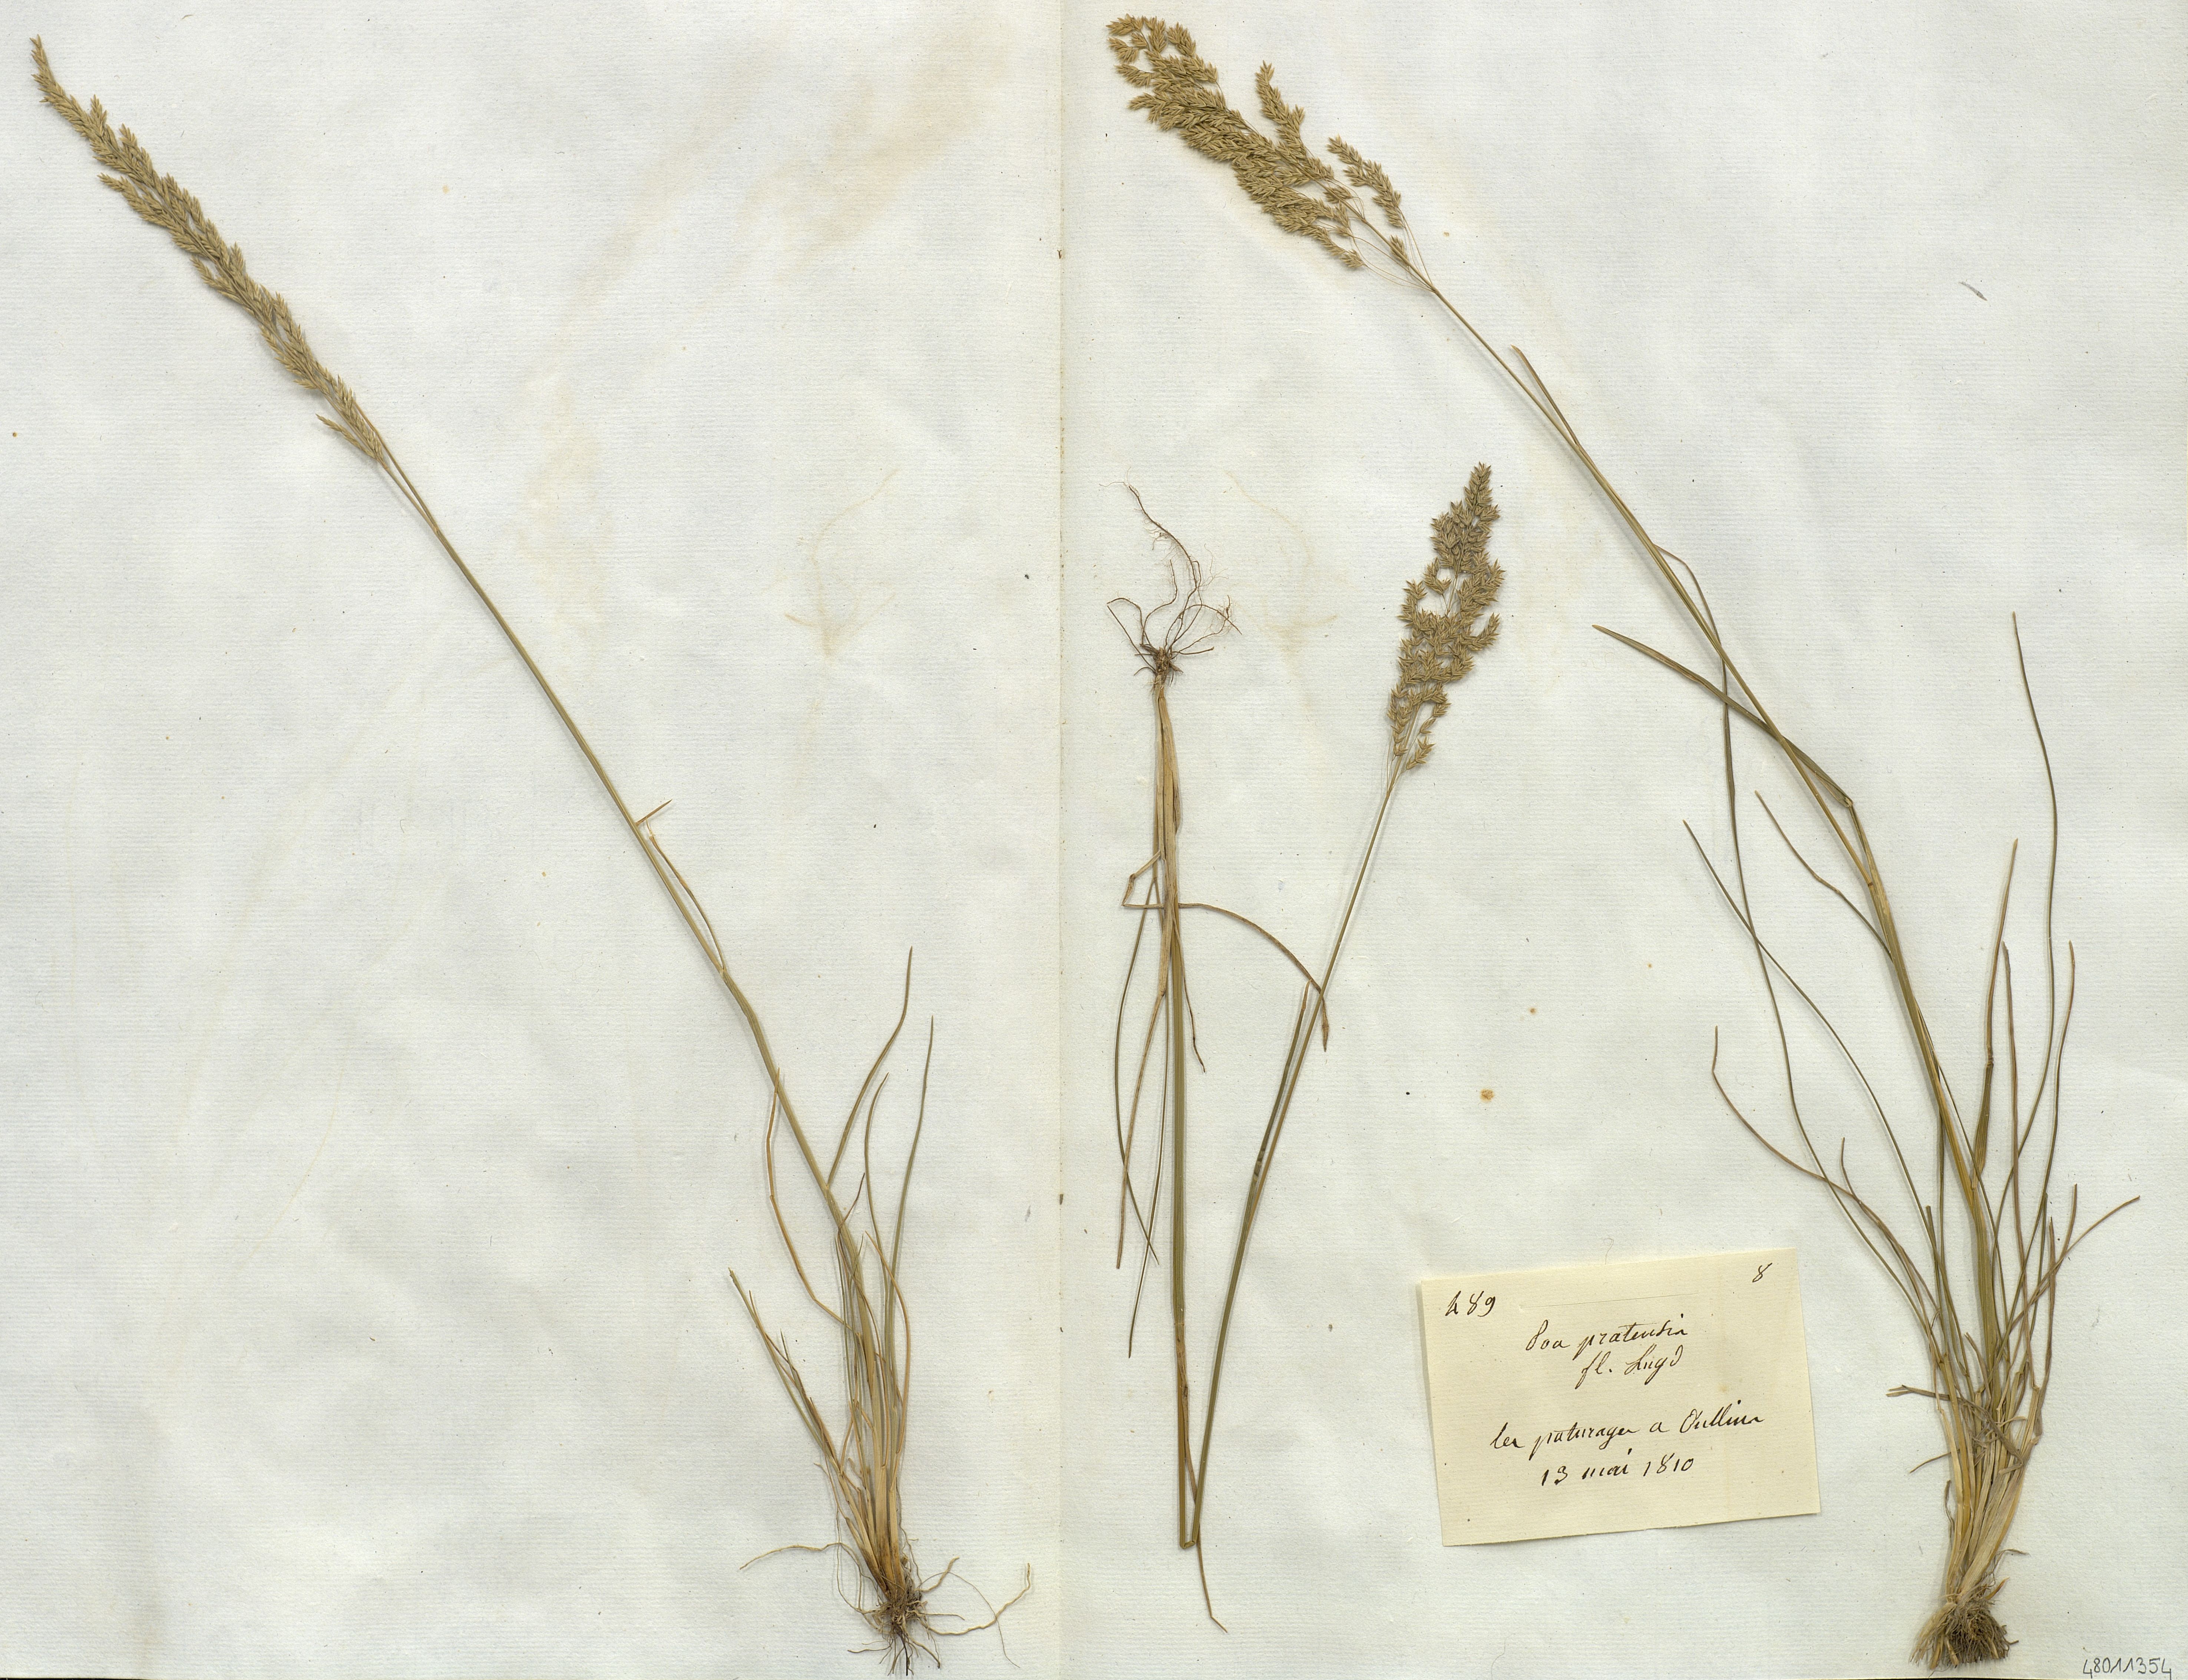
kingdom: Plantae
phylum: Tracheophyta
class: Liliopsida
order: Poales
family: Poaceae
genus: Poa
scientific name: Poa pratensis
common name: Kentucky bluegrass
